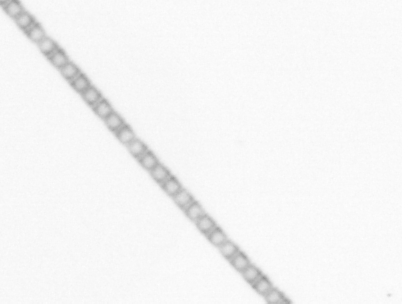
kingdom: Chromista
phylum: Ochrophyta
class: Bacillariophyceae
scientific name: Bacillariophyceae
